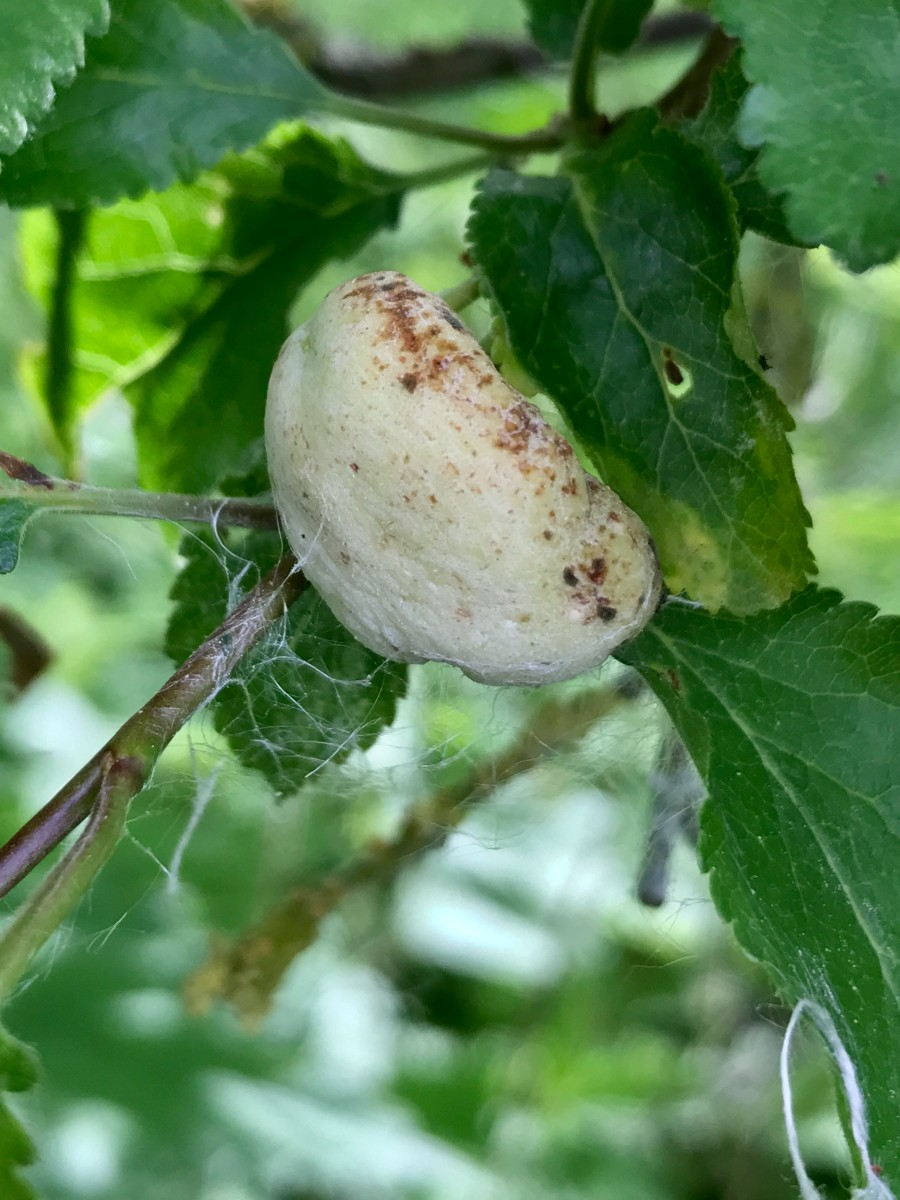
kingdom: Fungi
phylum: Ascomycota
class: Taphrinomycetes
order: Taphrinales
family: Taphrinaceae
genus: Taphrina
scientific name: Taphrina pruni
